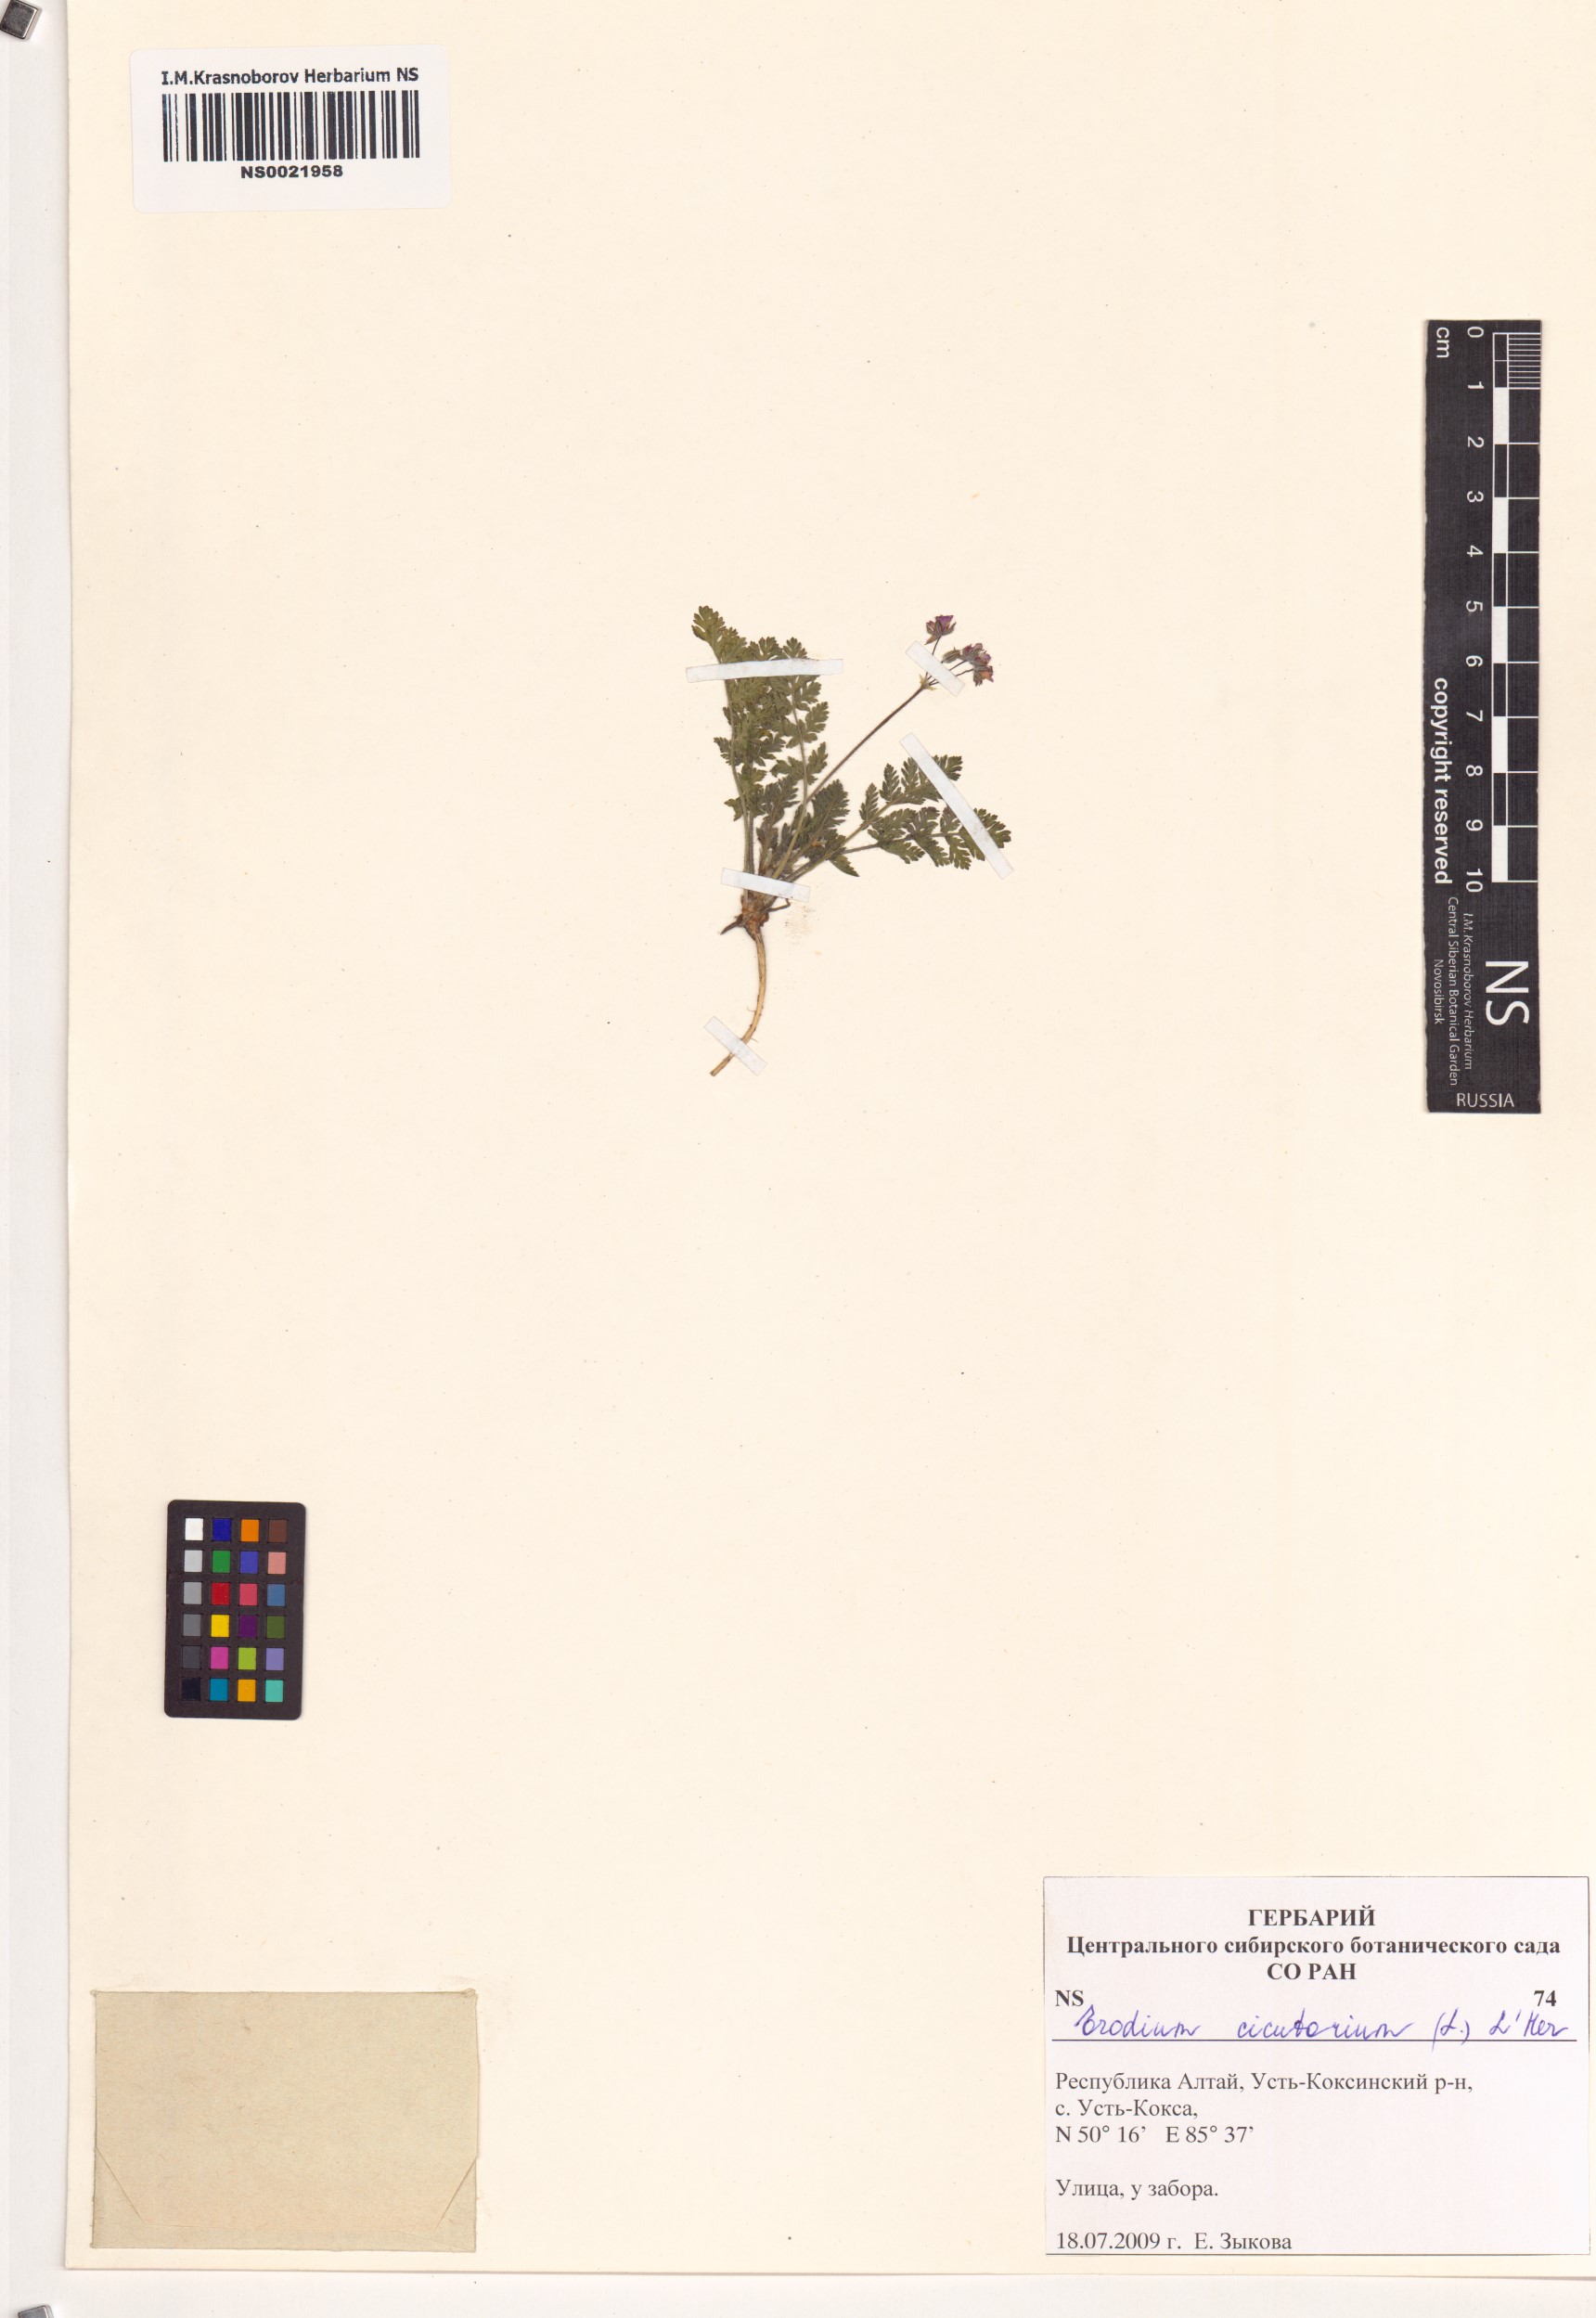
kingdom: Plantae
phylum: Tracheophyta
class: Magnoliopsida
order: Geraniales
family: Geraniaceae
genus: Erodium
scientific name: Erodium cicutarium
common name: Common stork's-bill
